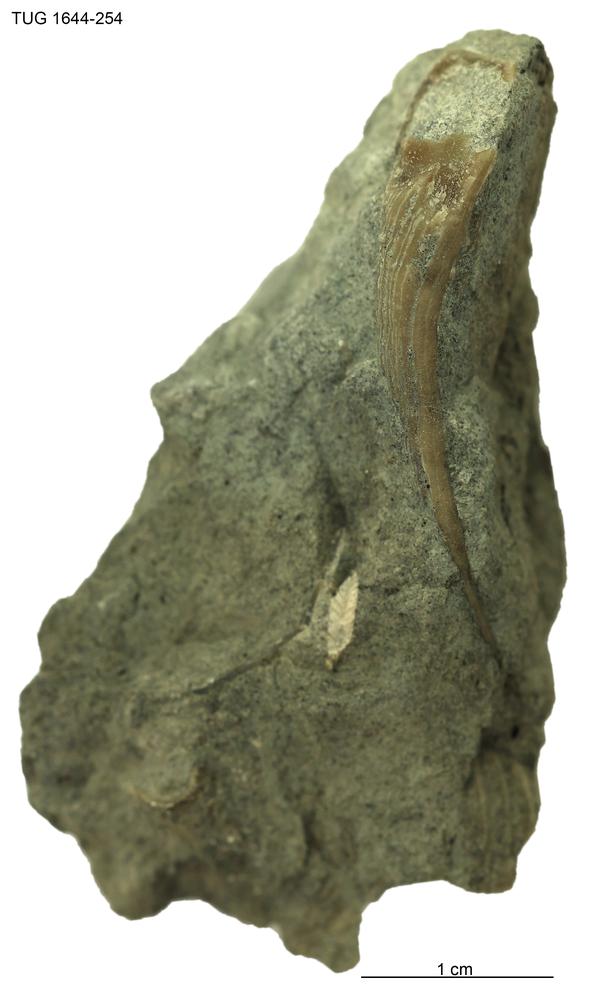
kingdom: Animalia
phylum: Mollusca
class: Monoplacophora
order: Tryblidiida
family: Tryblidiidae
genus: Pilina
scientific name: Pilina
